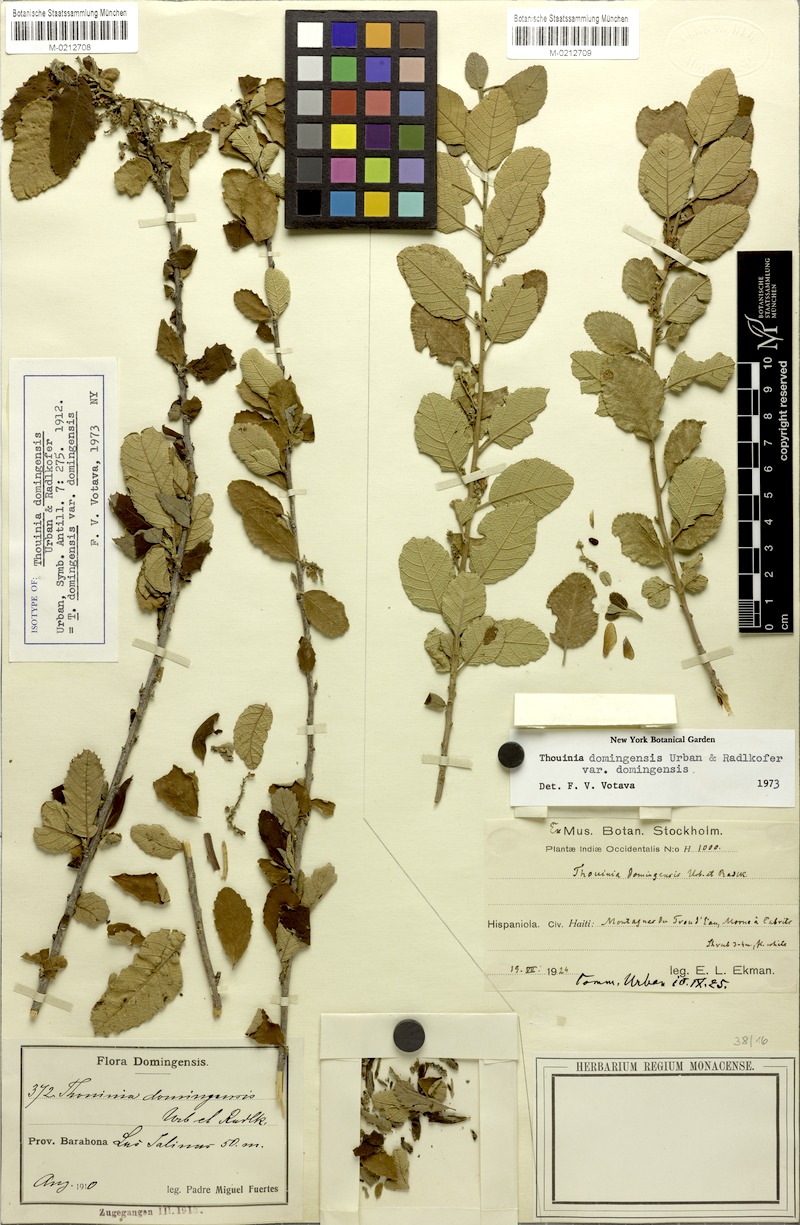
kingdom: Plantae
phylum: Tracheophyta
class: Magnoliopsida
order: Sapindales
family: Sapindaceae
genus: Thouinia
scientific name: Thouinia domingensis
